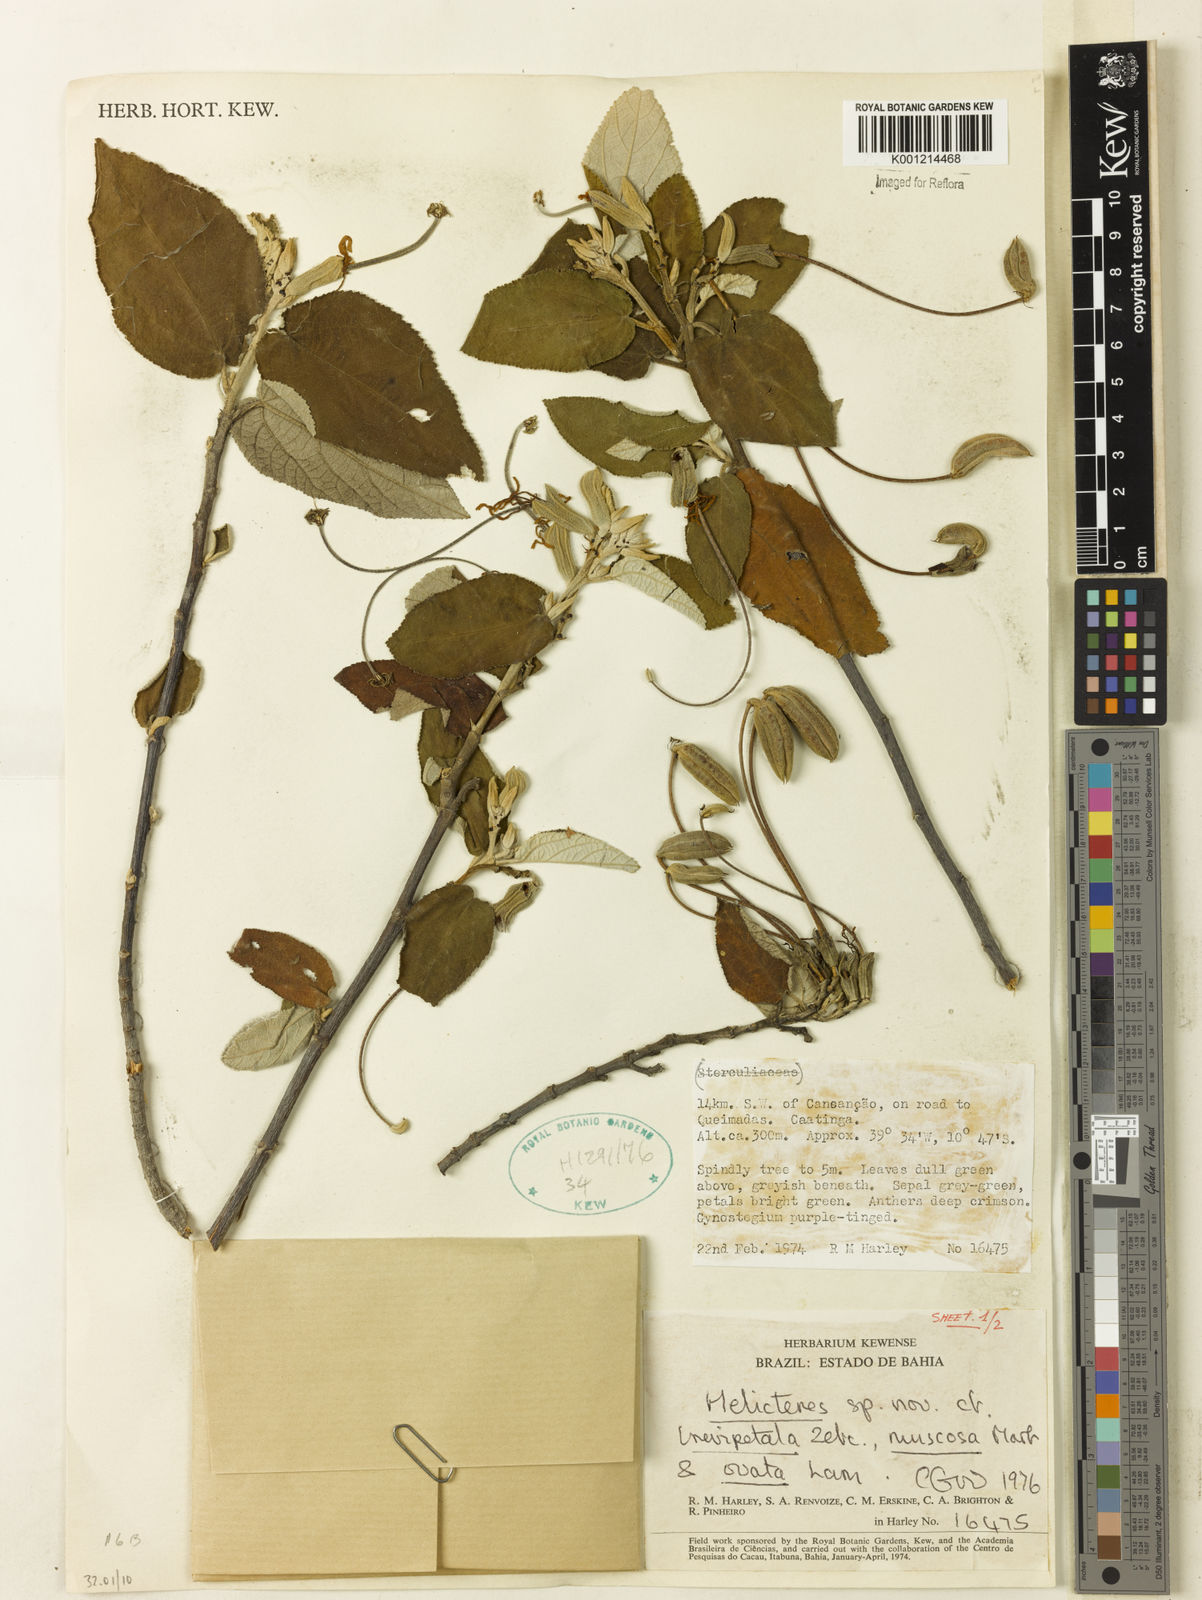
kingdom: Plantae
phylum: Tracheophyta
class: Magnoliopsida
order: Malvales
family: Malvaceae
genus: Helicteres
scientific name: Helicteres
